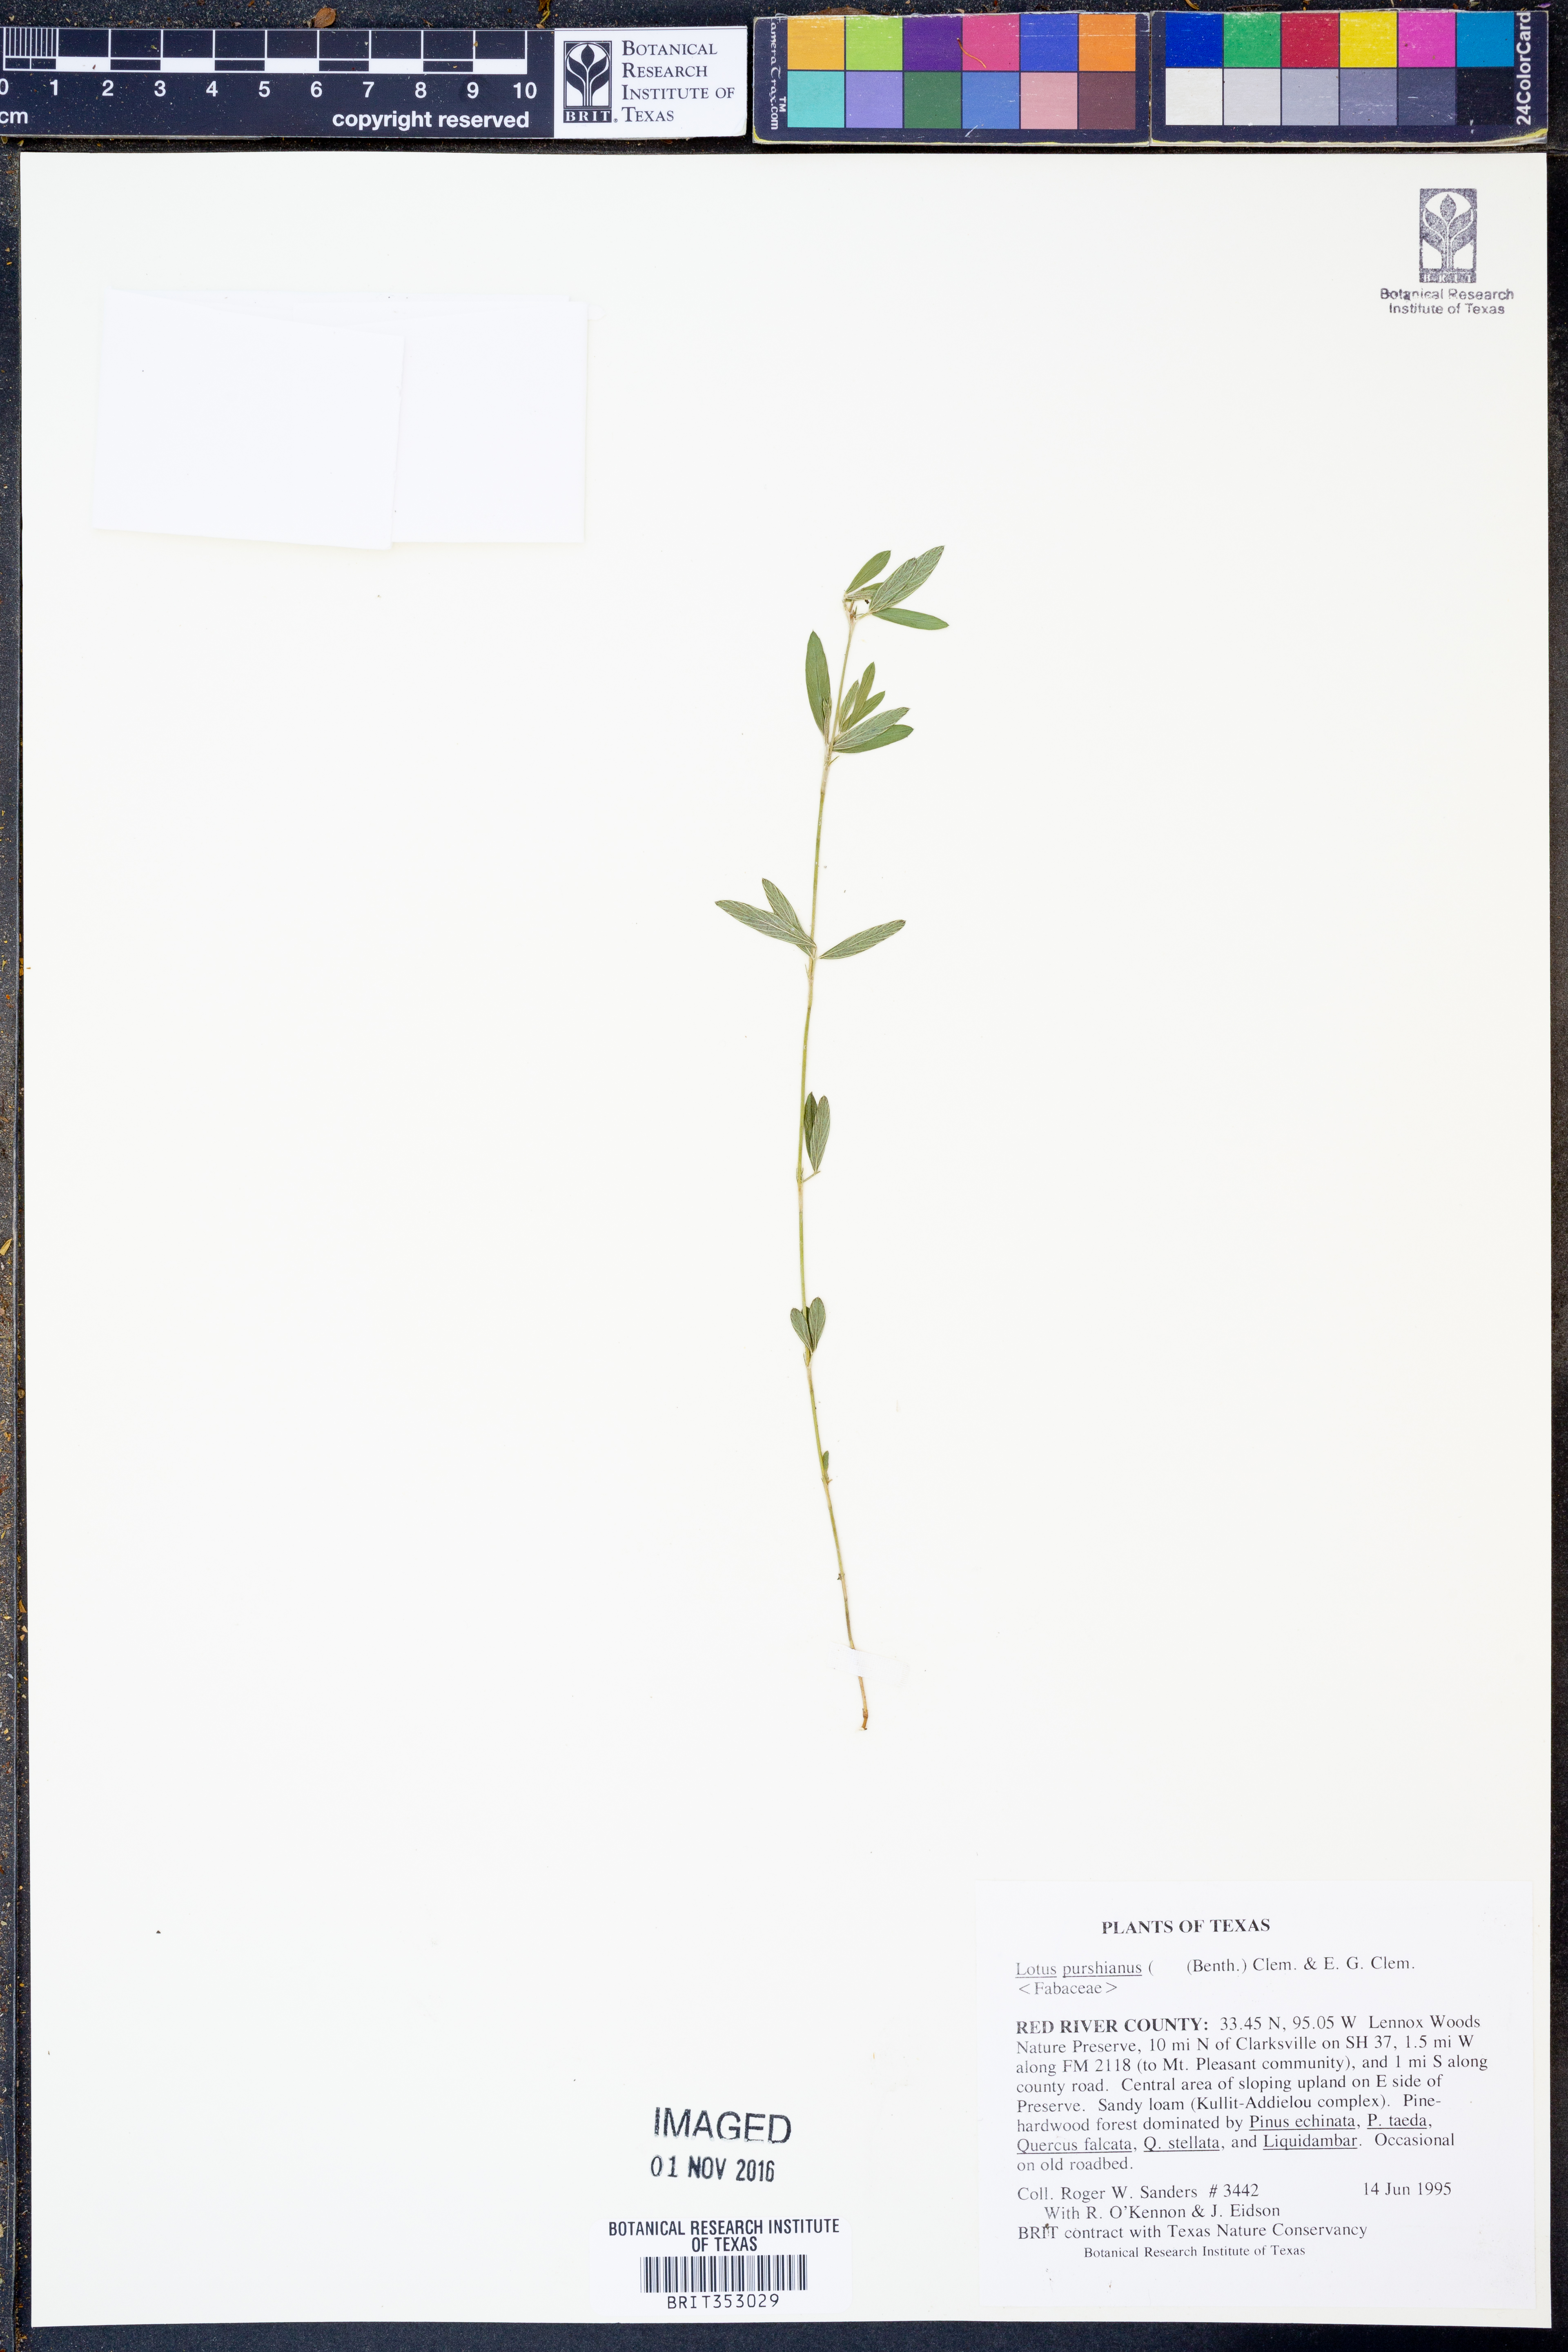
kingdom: Plantae
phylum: Tracheophyta
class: Magnoliopsida
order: Fabales
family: Fabaceae
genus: Acmispon
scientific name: Acmispon americanus
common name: American bird's-foot trefoil
